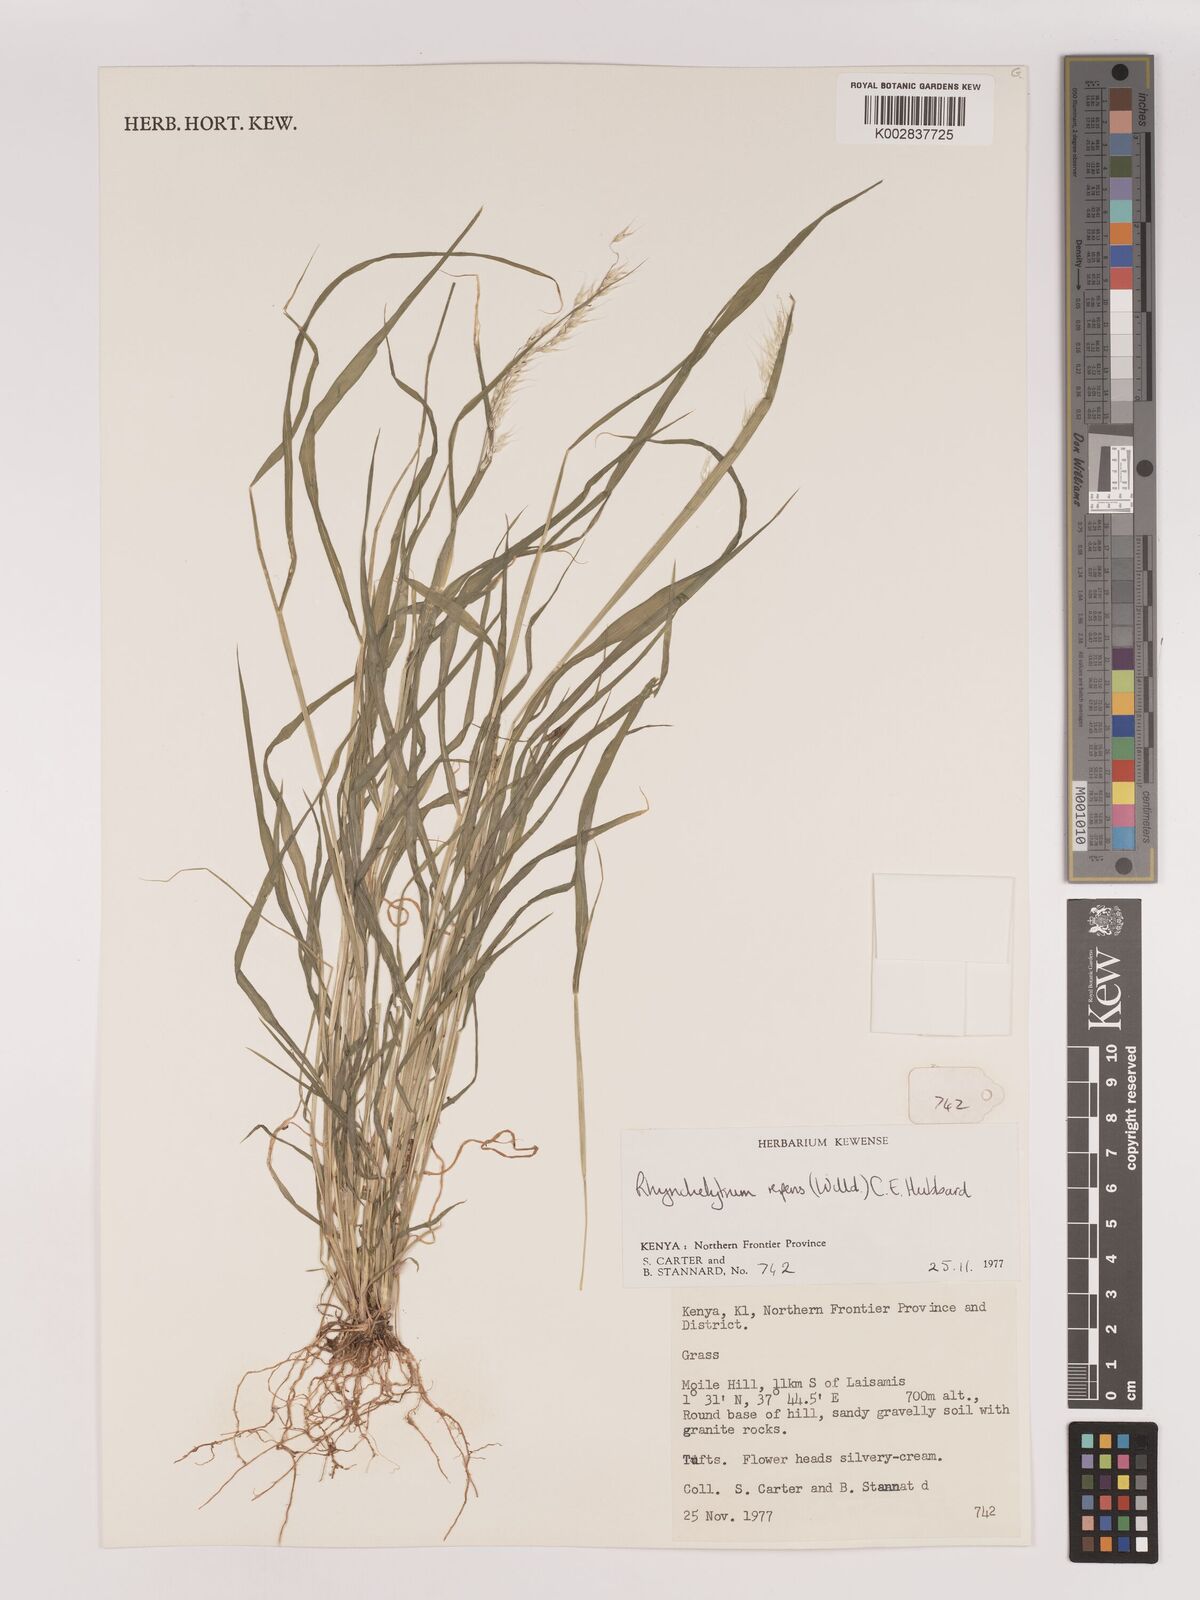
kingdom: Plantae
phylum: Tracheophyta
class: Liliopsida
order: Poales
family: Poaceae
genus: Melinis
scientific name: Melinis repens
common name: Rose natal grass
